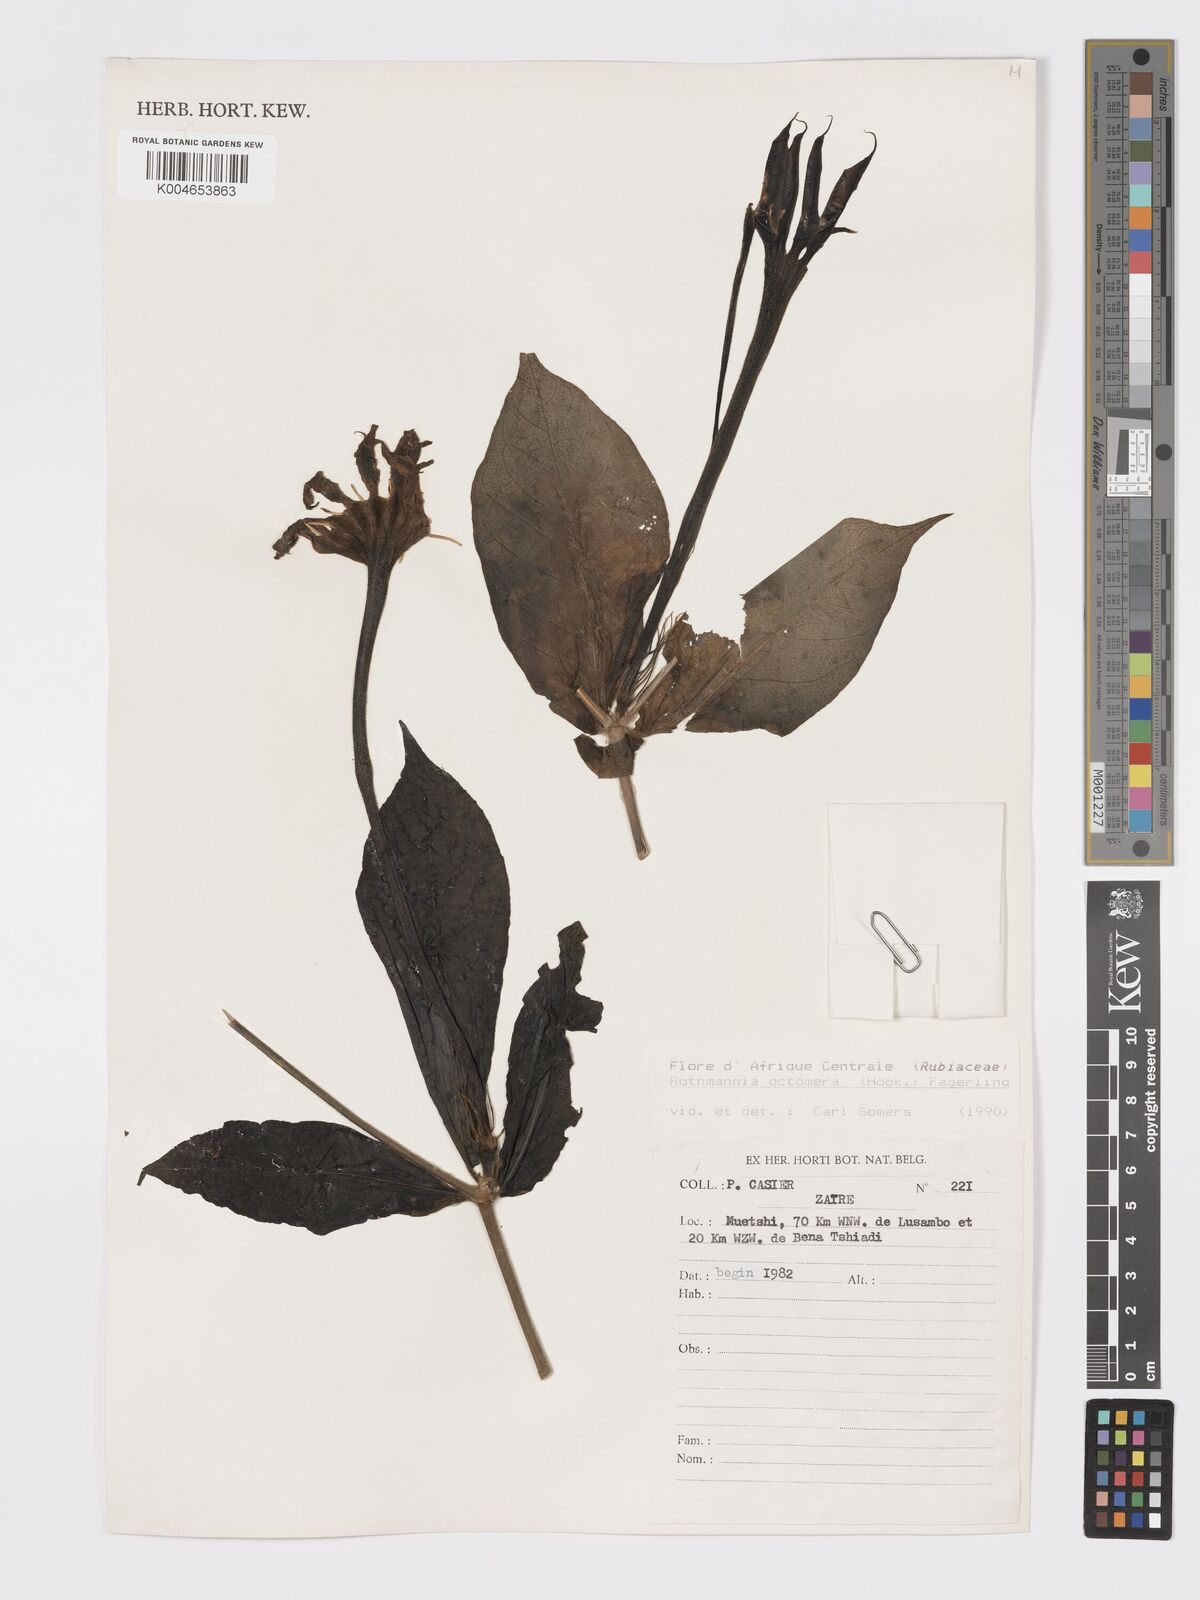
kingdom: Plantae
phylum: Tracheophyta
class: Magnoliopsida
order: Gentianales
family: Rubiaceae
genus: Rothmannia
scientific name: Rothmannia octomera
